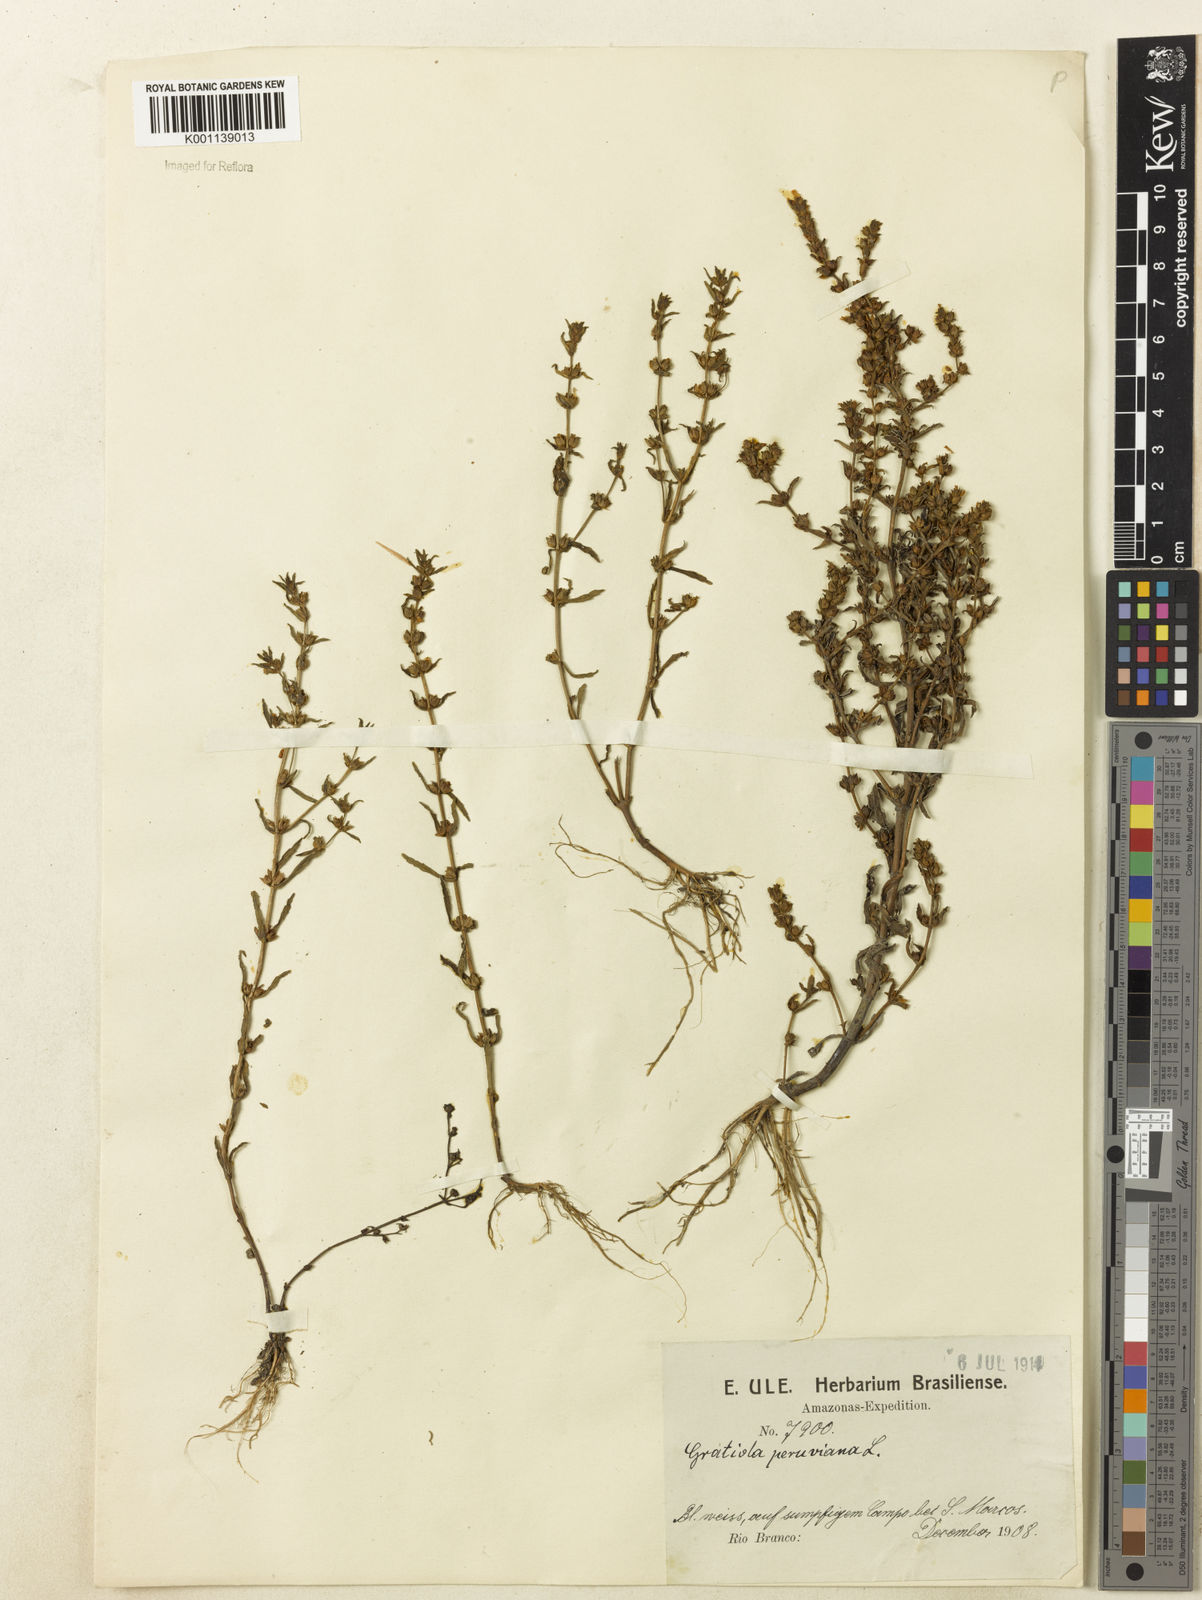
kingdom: Plantae
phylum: Tracheophyta
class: Magnoliopsida
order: Lamiales
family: Plantaginaceae
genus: Gratiola
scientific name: Gratiola peruviana
